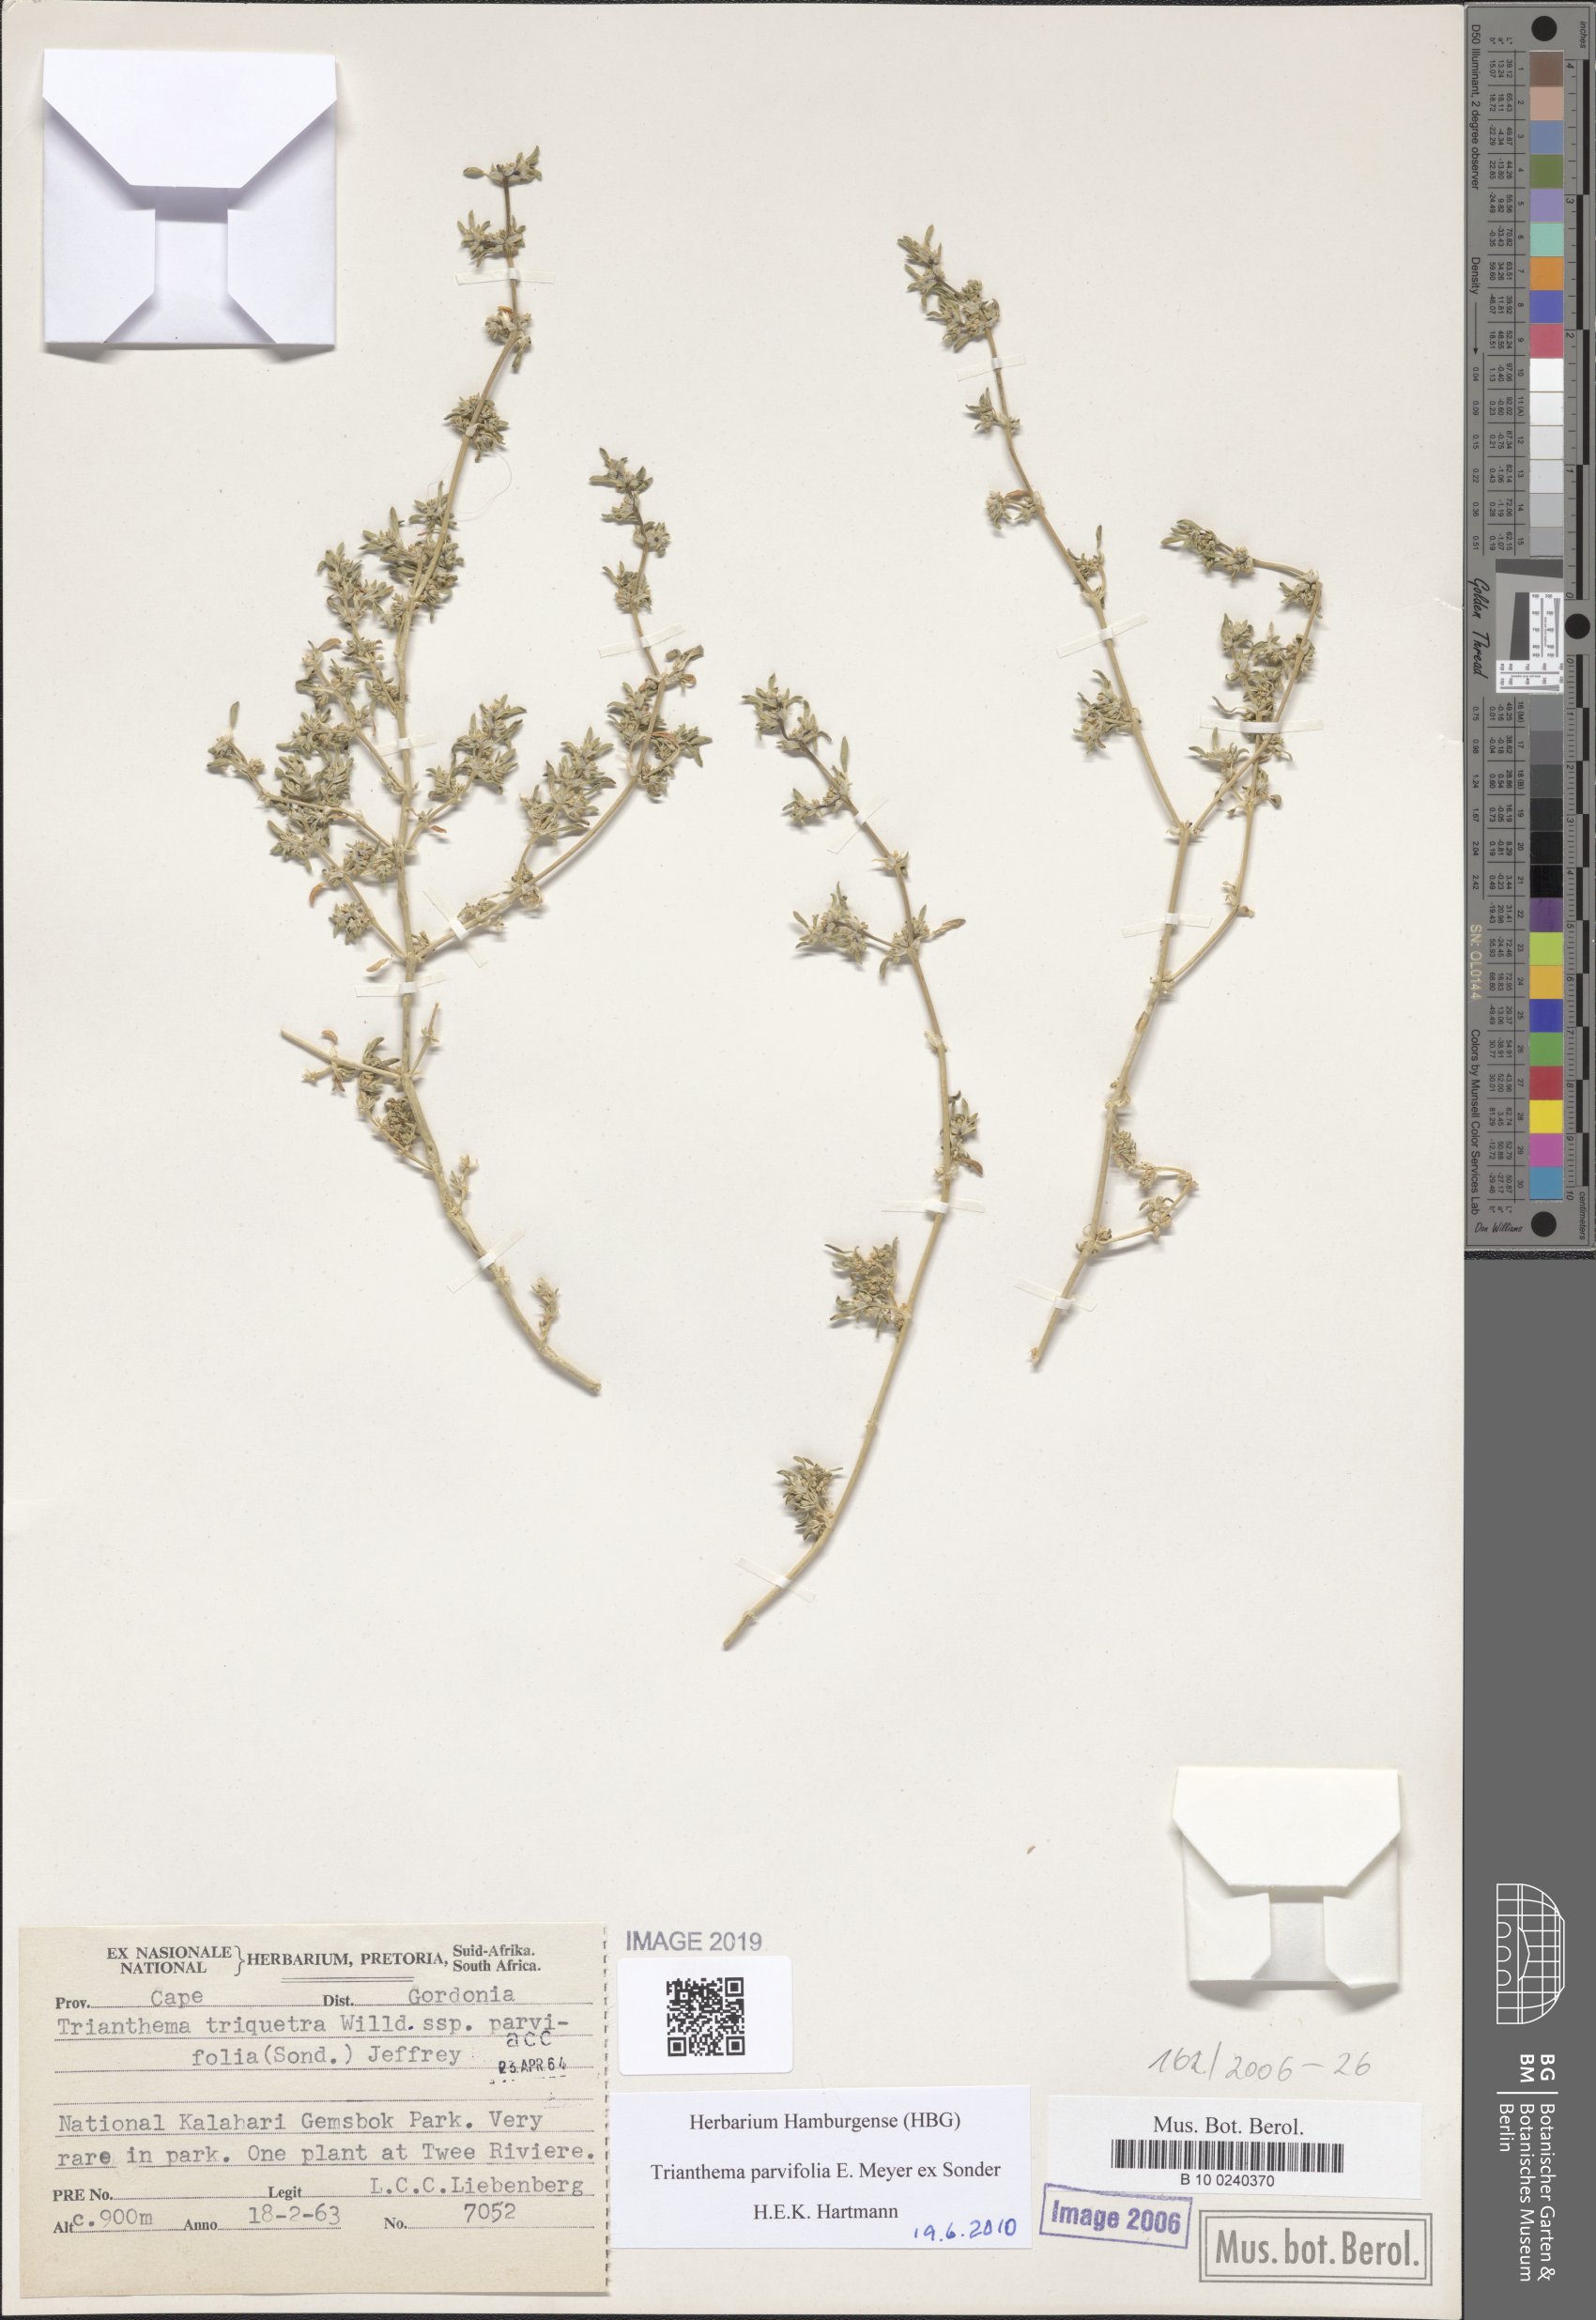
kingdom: Plantae
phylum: Tracheophyta
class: Magnoliopsida
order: Caryophyllales
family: Aizoaceae
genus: Trianthema
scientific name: Trianthema parvifolium
